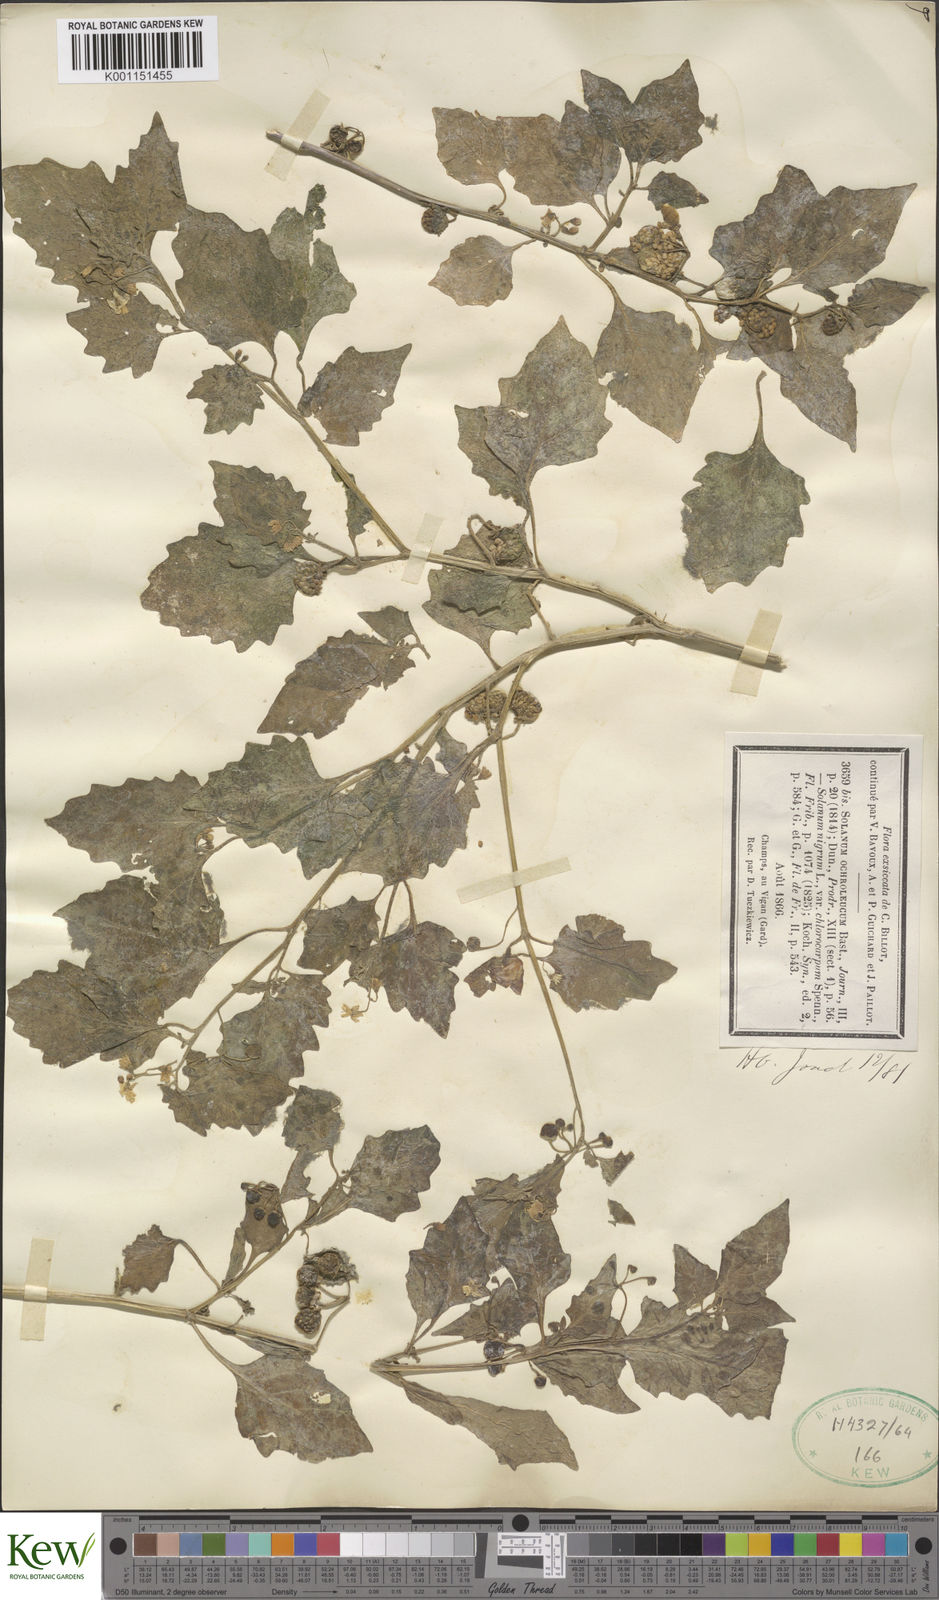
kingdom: Plantae
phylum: Tracheophyta
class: Magnoliopsida
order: Solanales
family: Solanaceae
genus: Solanum
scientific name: Solanum villosum
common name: Red nightshade
